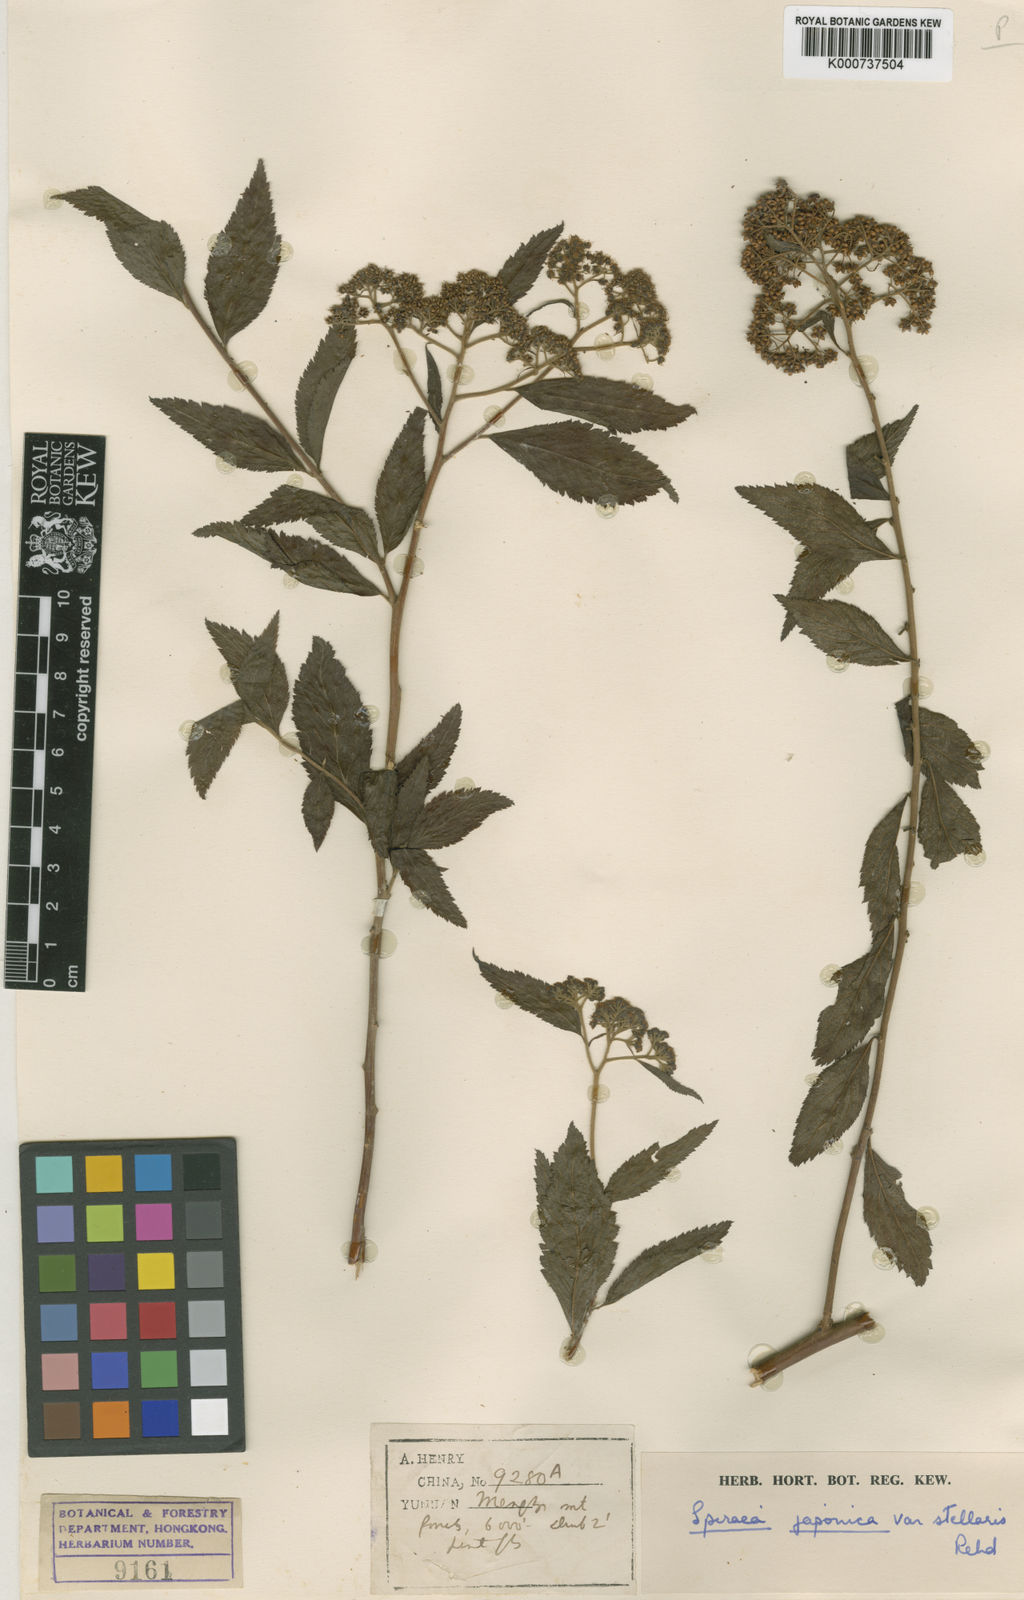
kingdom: Plantae
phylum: Tracheophyta
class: Magnoliopsida
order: Rosales
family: Rosaceae
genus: Spiraea
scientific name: Spiraea japonica
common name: Japanese spiraea
